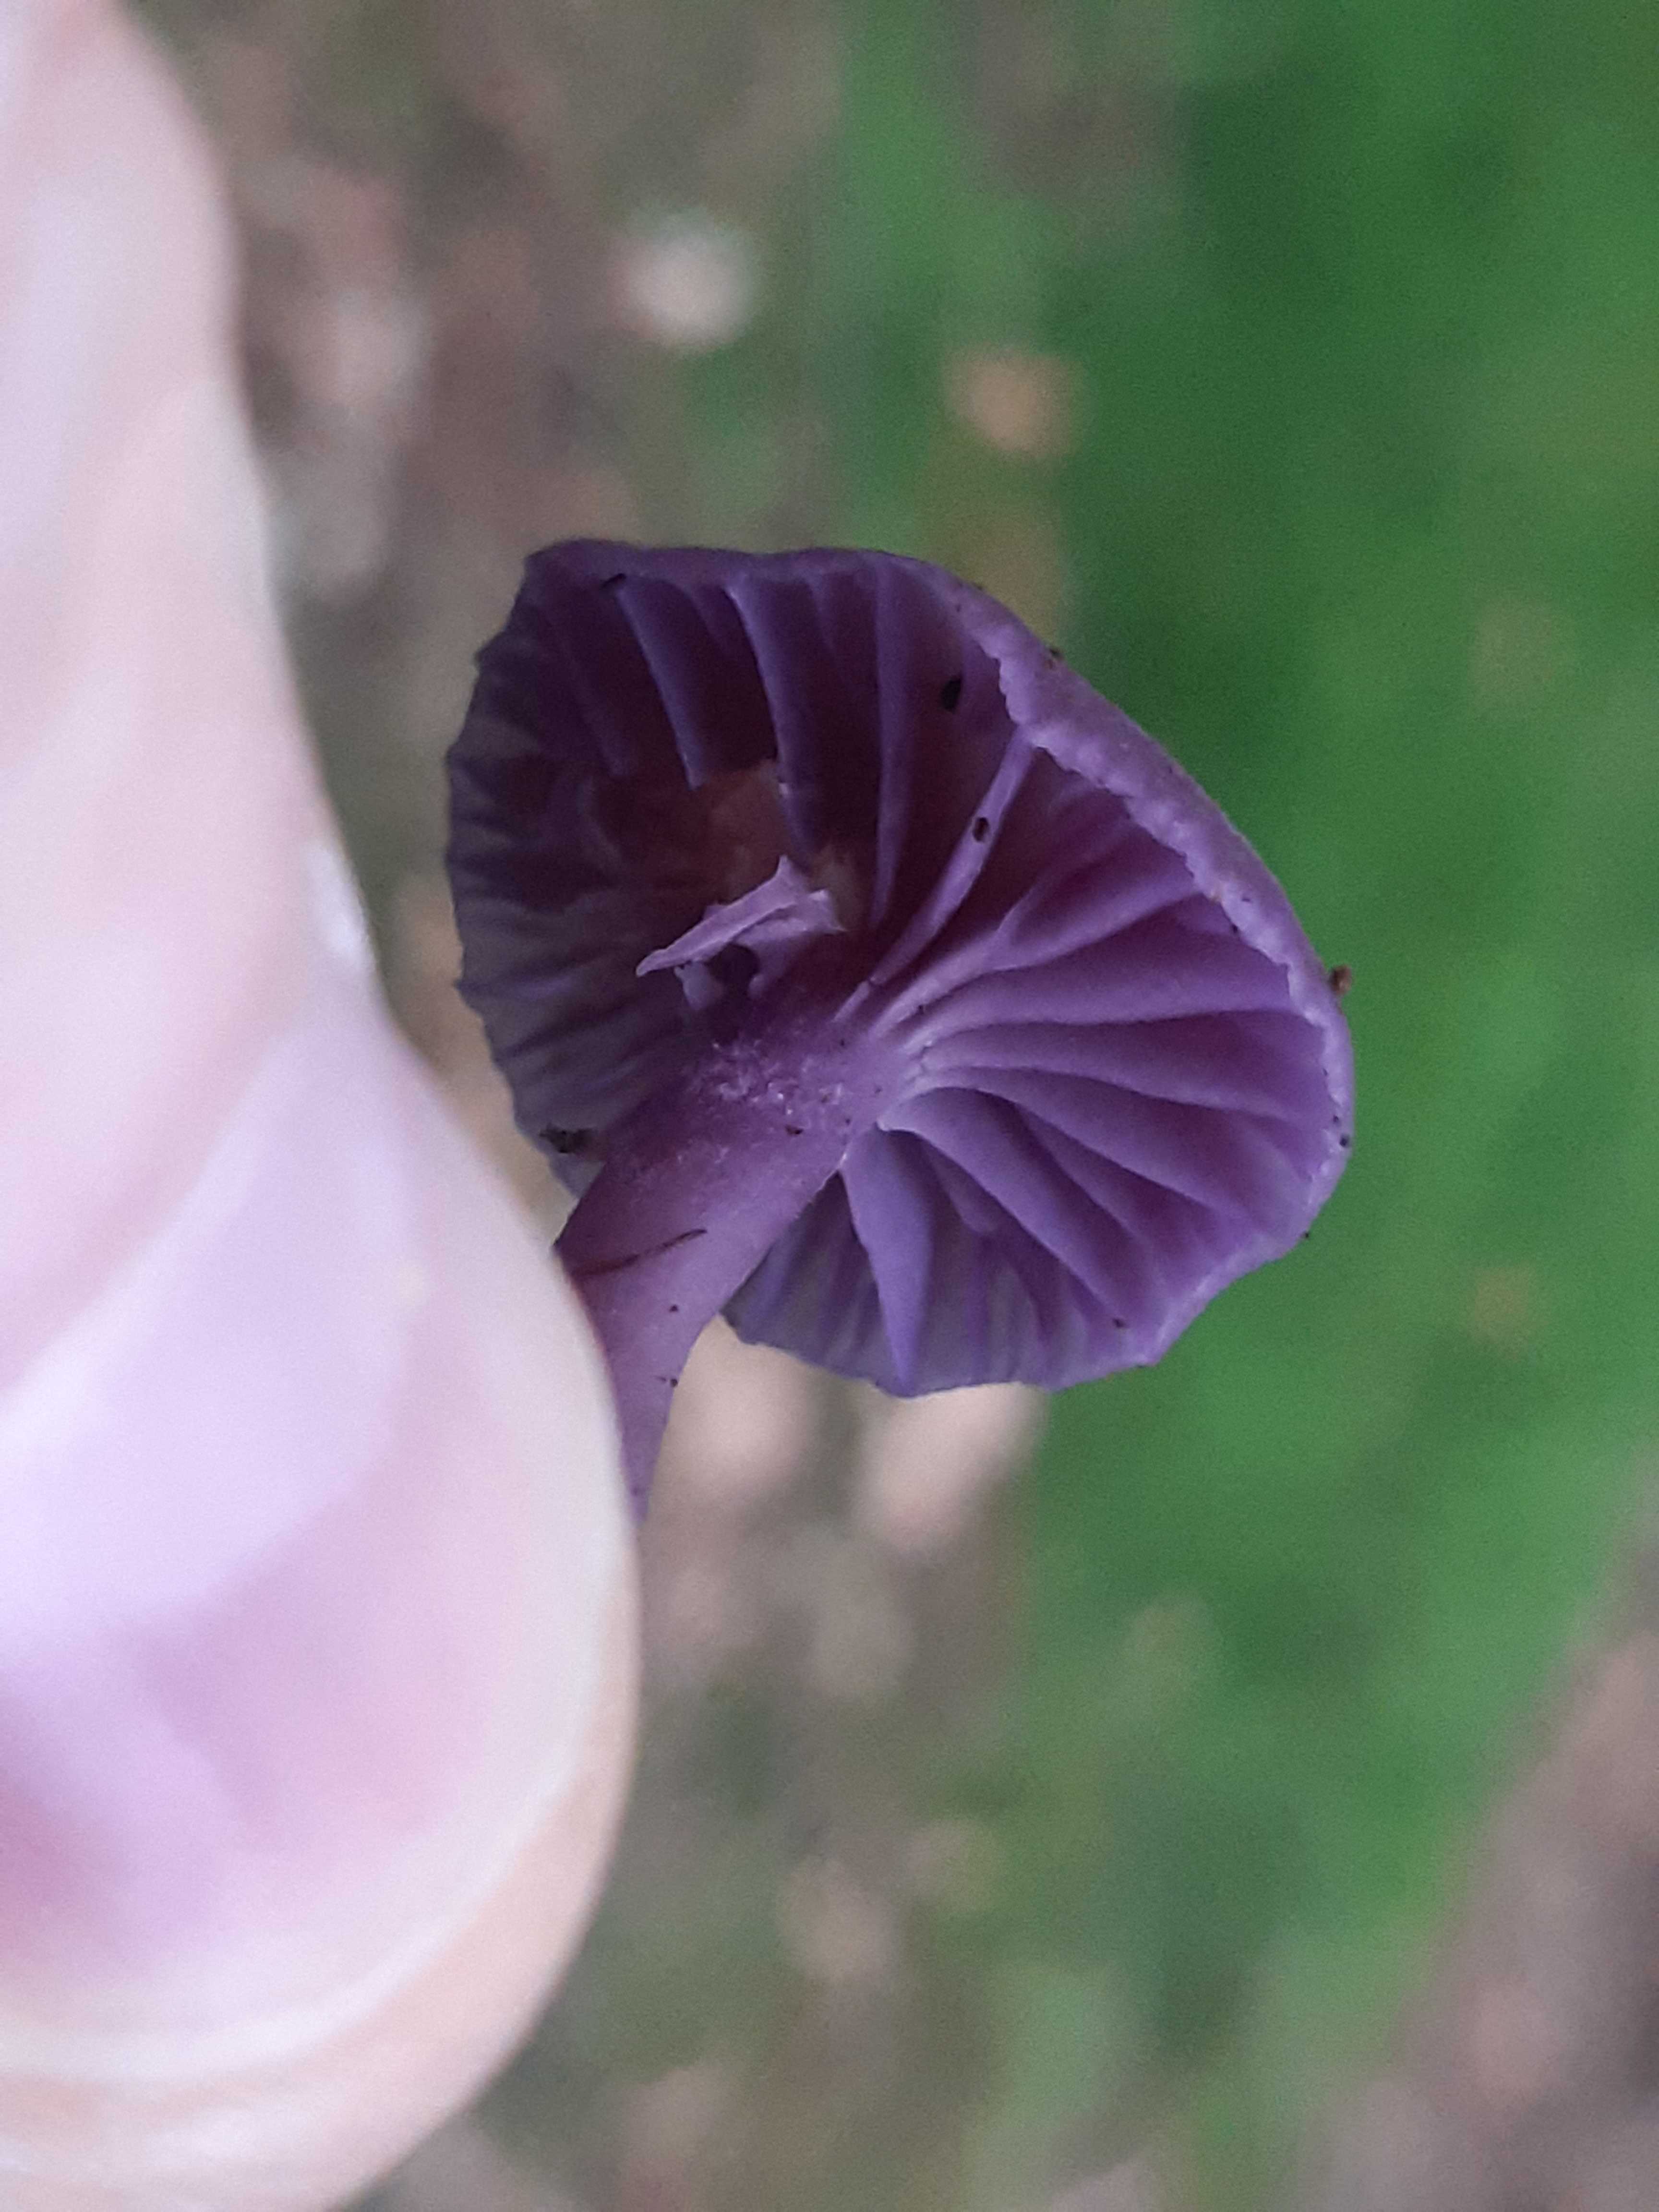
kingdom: Fungi
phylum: Basidiomycota
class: Agaricomycetes
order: Agaricales
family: Hydnangiaceae
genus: Laccaria
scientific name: Laccaria amethystina
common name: violet ametysthat
